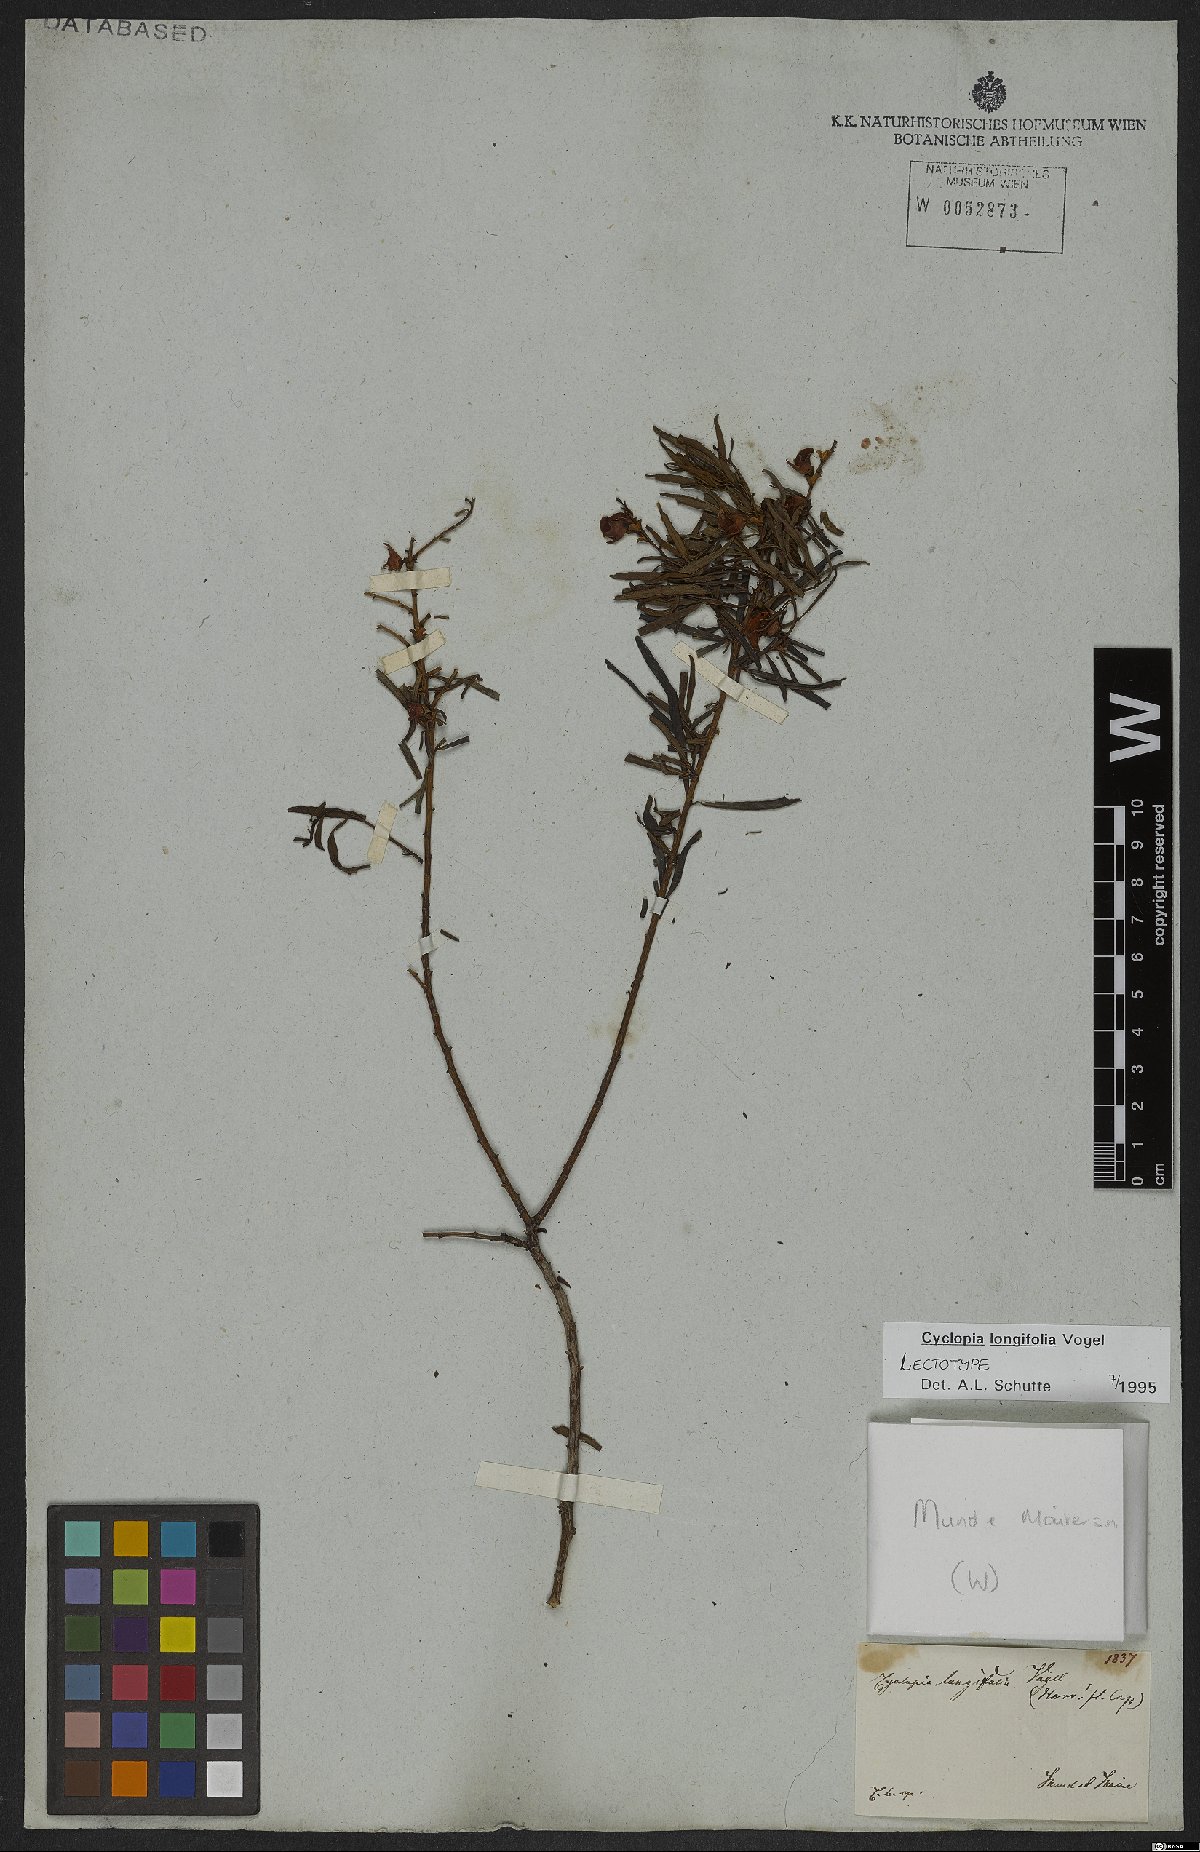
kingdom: Plantae
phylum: Tracheophyta
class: Magnoliopsida
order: Fabales
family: Fabaceae
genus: Cyclopia
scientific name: Cyclopia longifolia
